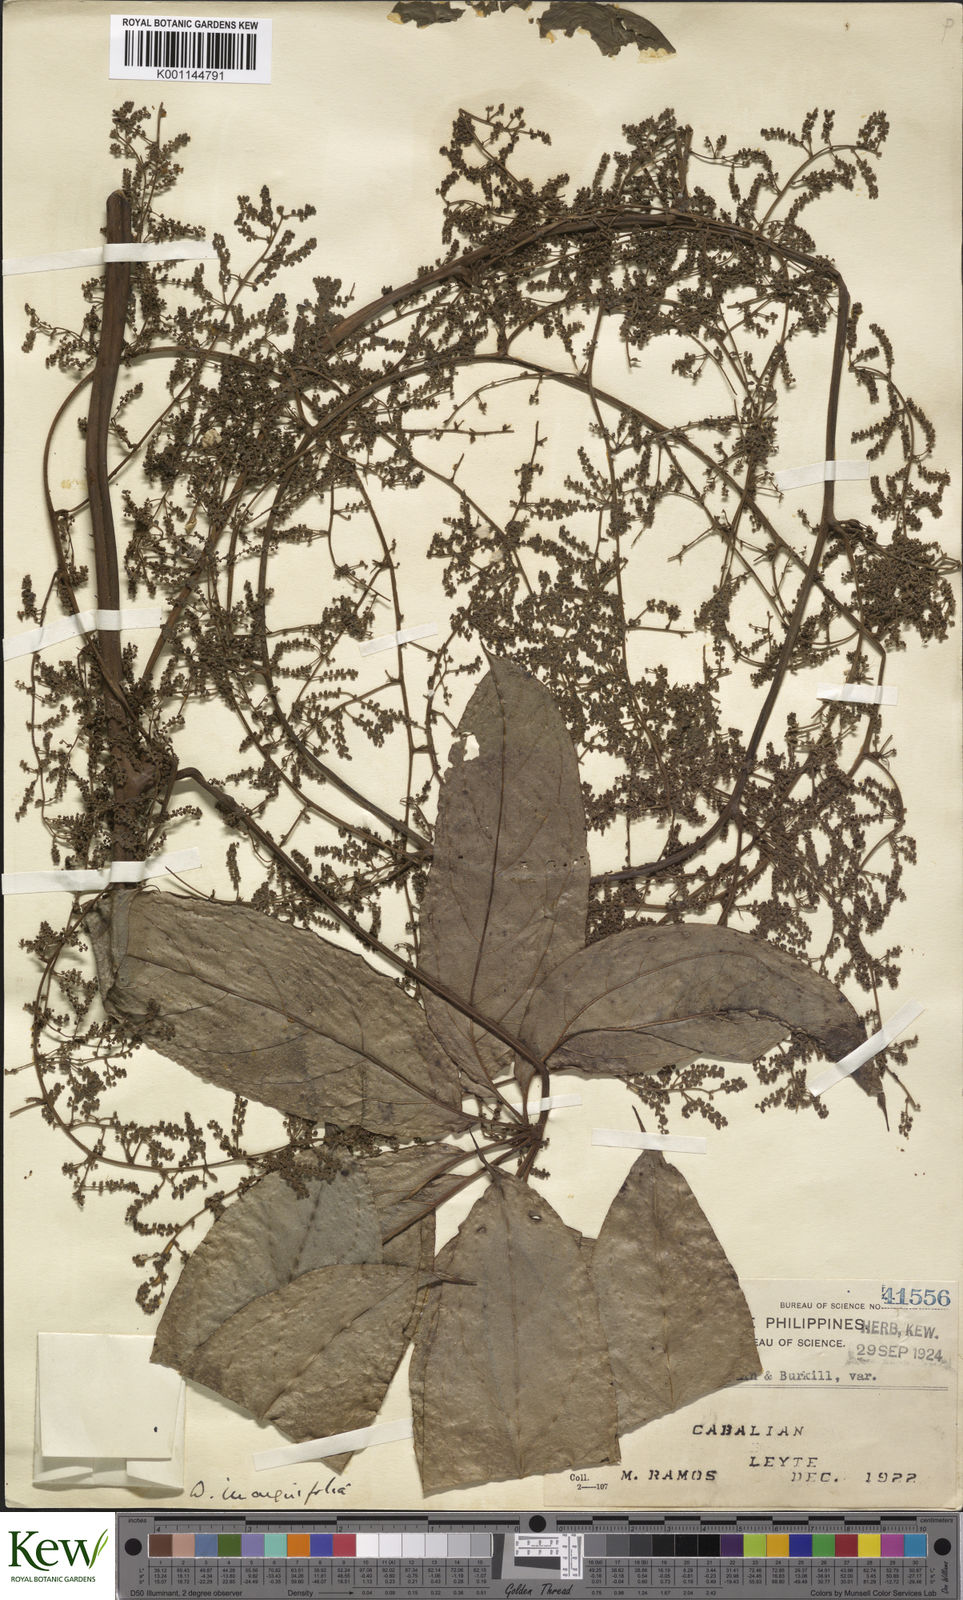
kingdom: Plantae
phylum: Tracheophyta
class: Liliopsida
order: Dioscoreales
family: Dioscoreaceae
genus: Dioscorea
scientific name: Dioscorea cumingii
